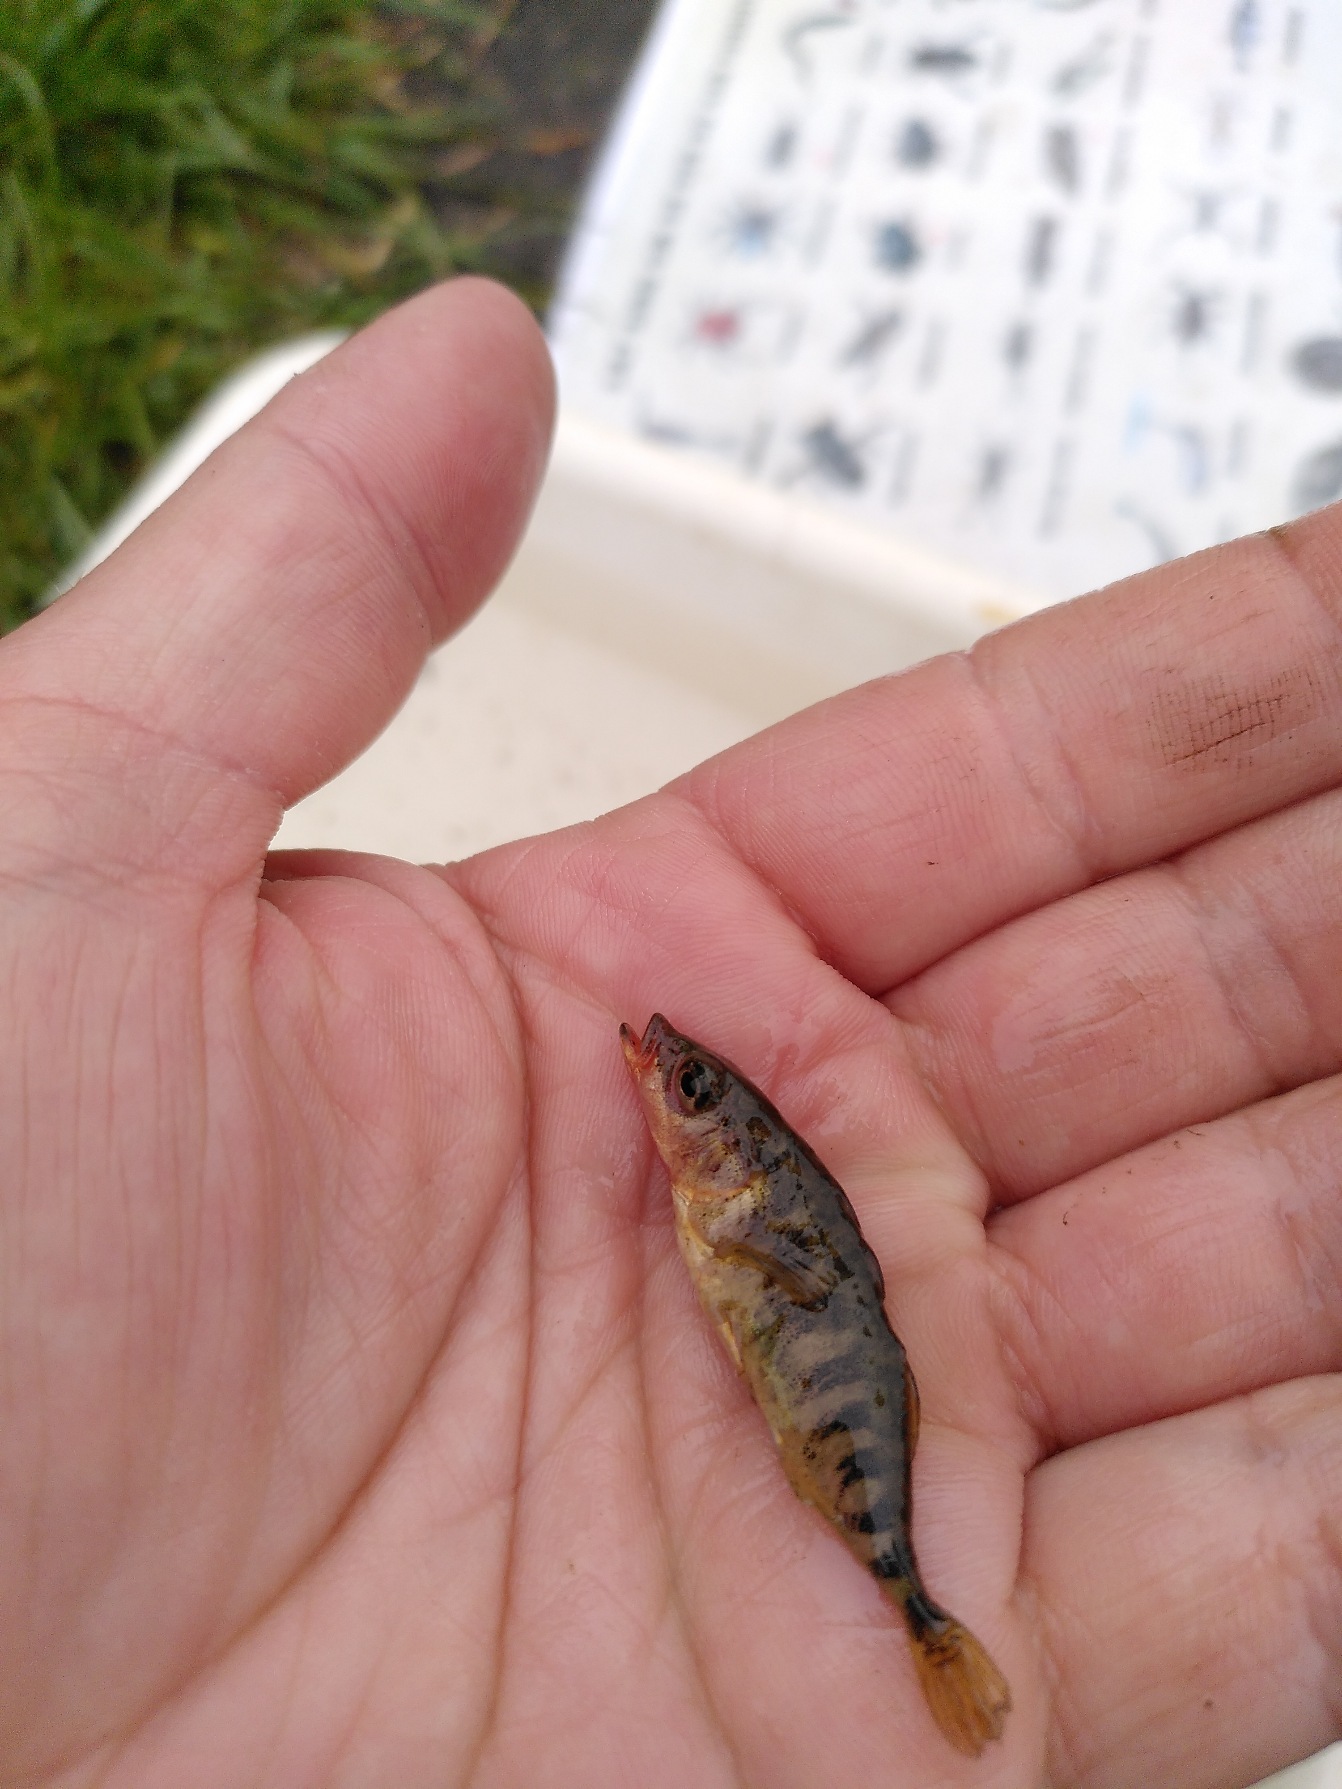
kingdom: Animalia
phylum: Chordata
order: Gasterosteiformes
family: Gasterosteidae
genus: Gasterosteus
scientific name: Gasterosteus aculeatus
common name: Trepigget hundestejle
